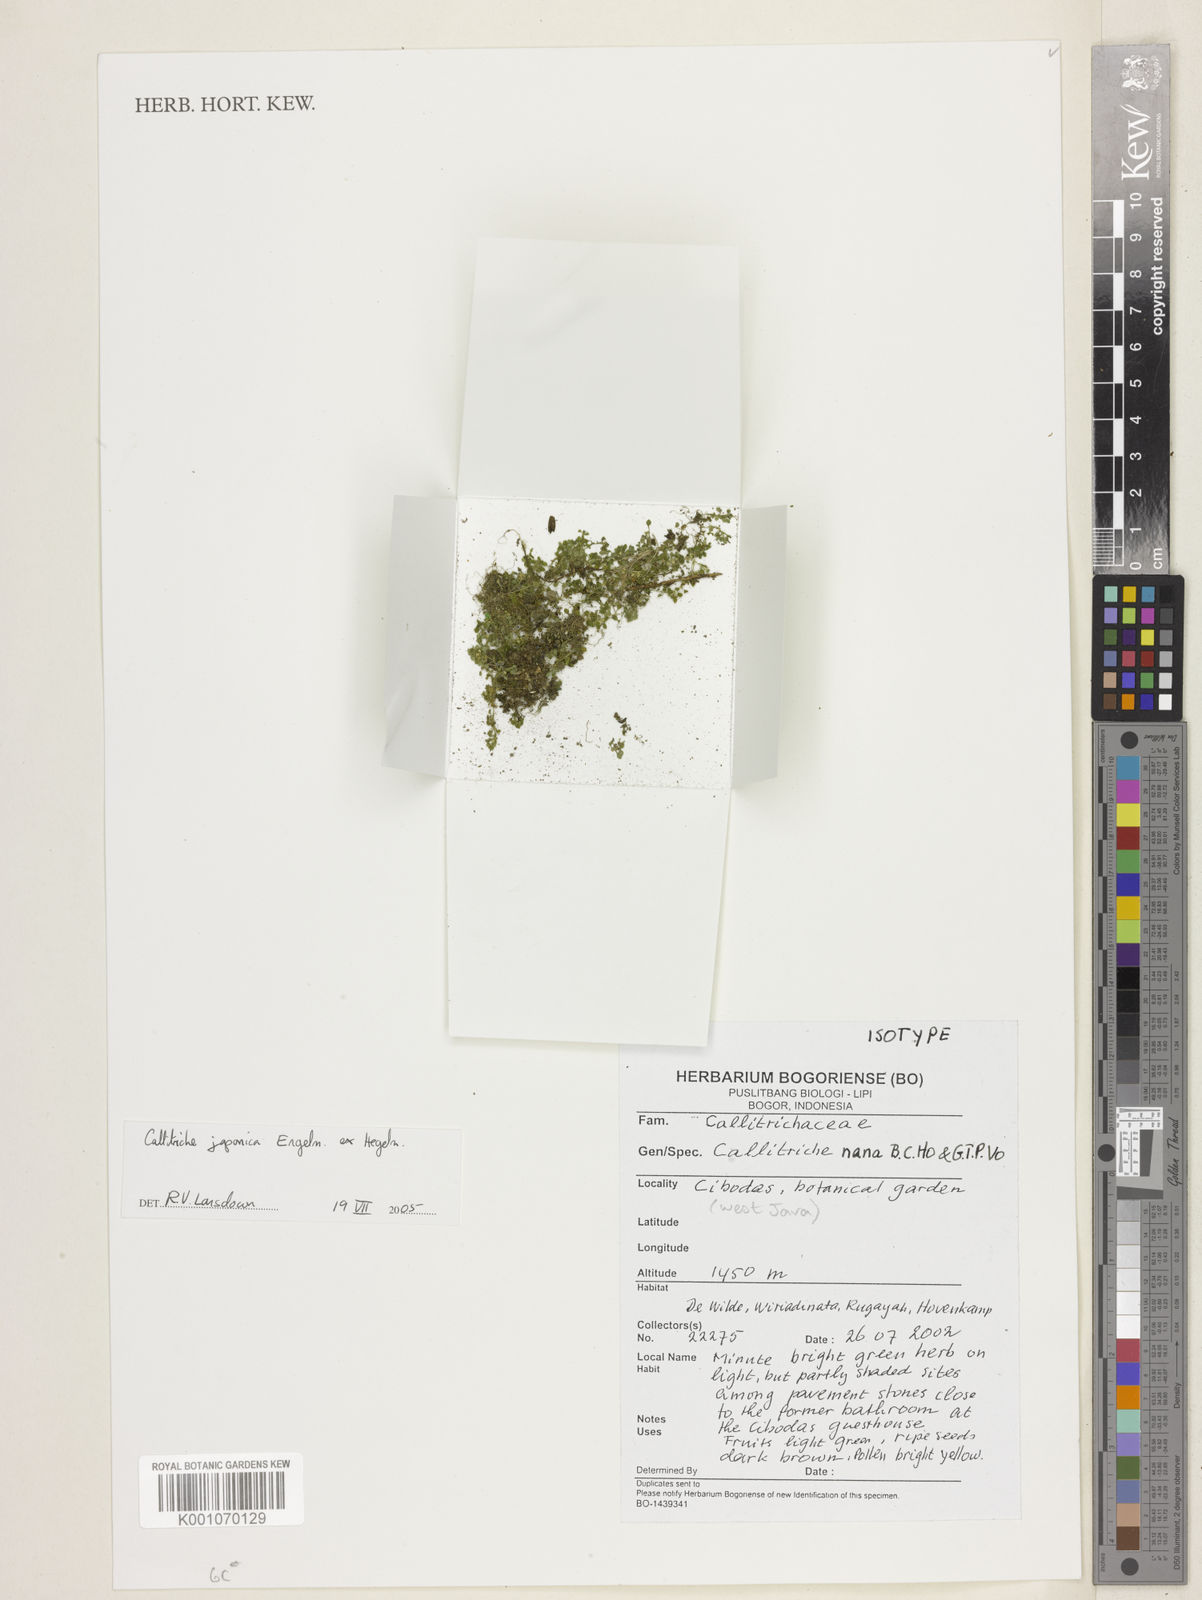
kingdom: Plantae
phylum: Tracheophyta
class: Magnoliopsida
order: Lamiales
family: Plantaginaceae
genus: Callitriche
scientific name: Callitriche palustris
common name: Spring water-starwort
